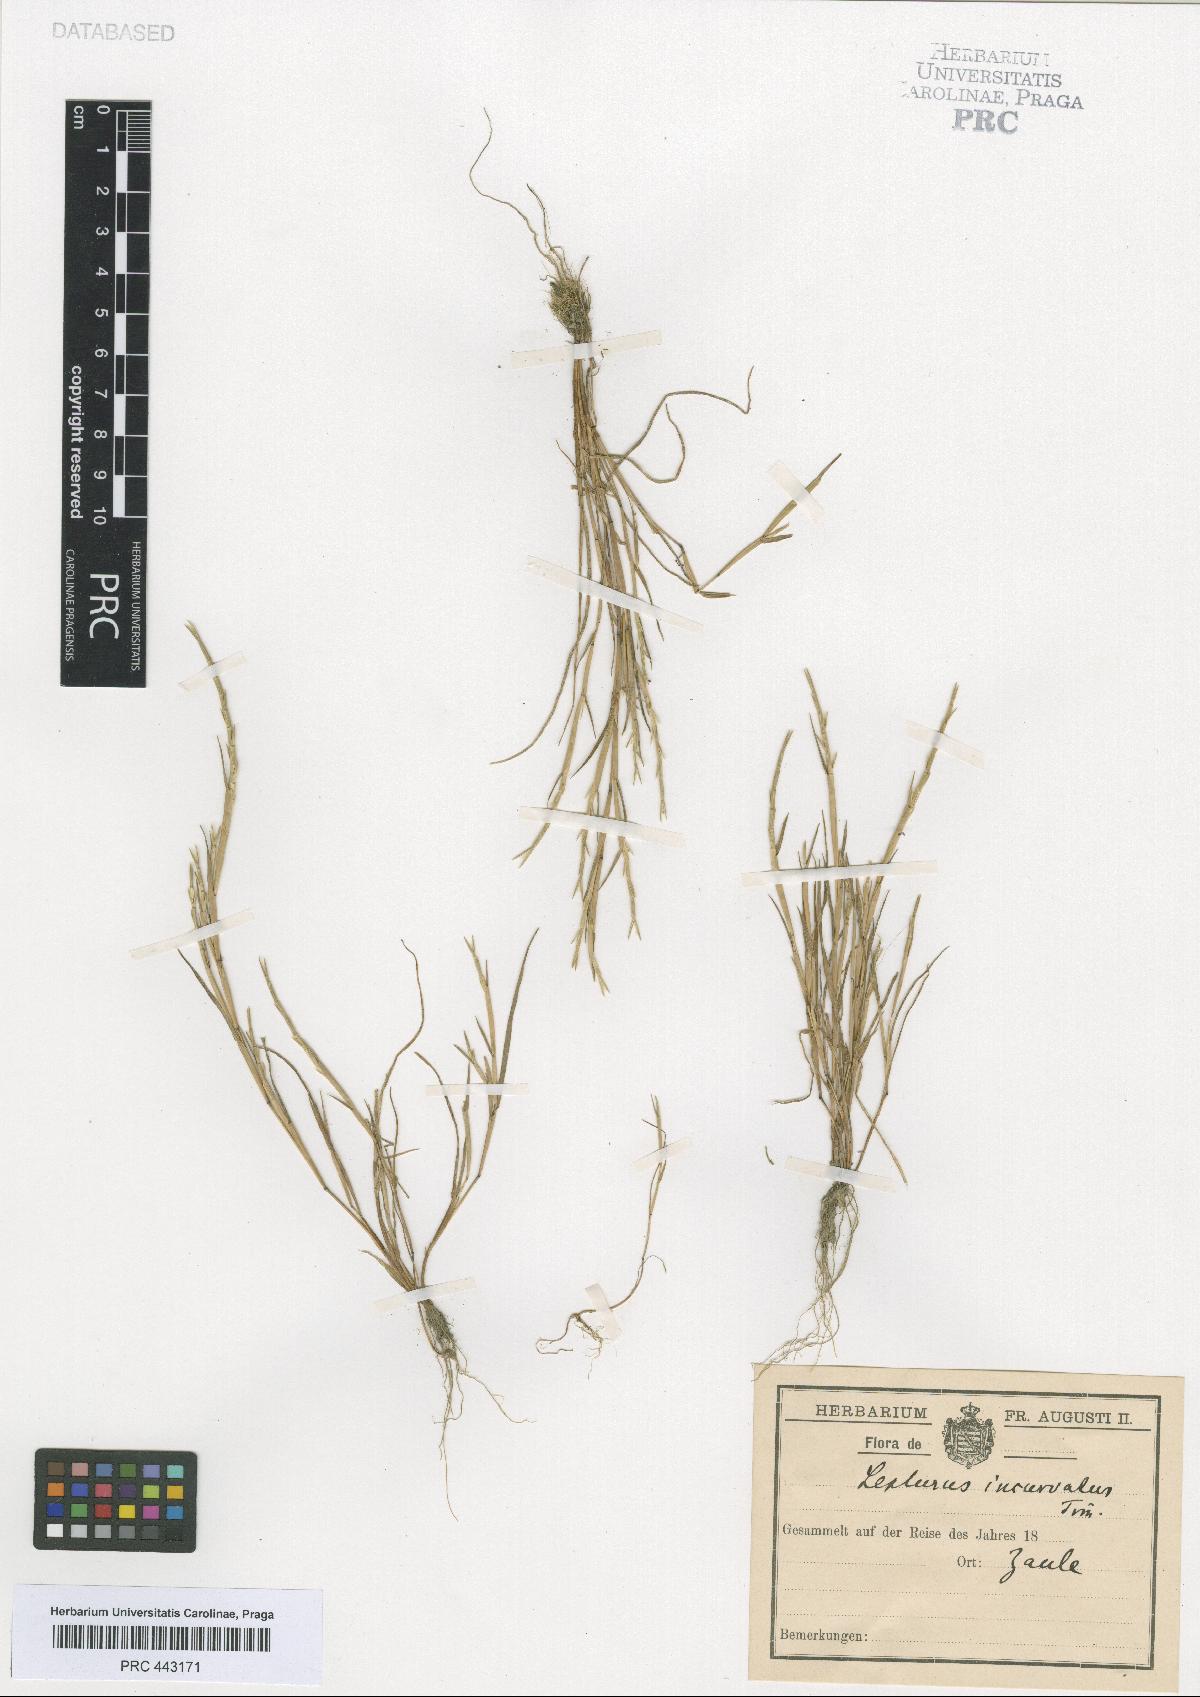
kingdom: Plantae
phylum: Tracheophyta
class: Liliopsida
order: Poales
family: Poaceae
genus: Parapholis
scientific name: Parapholis incurva
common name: Curved sicklegrass
